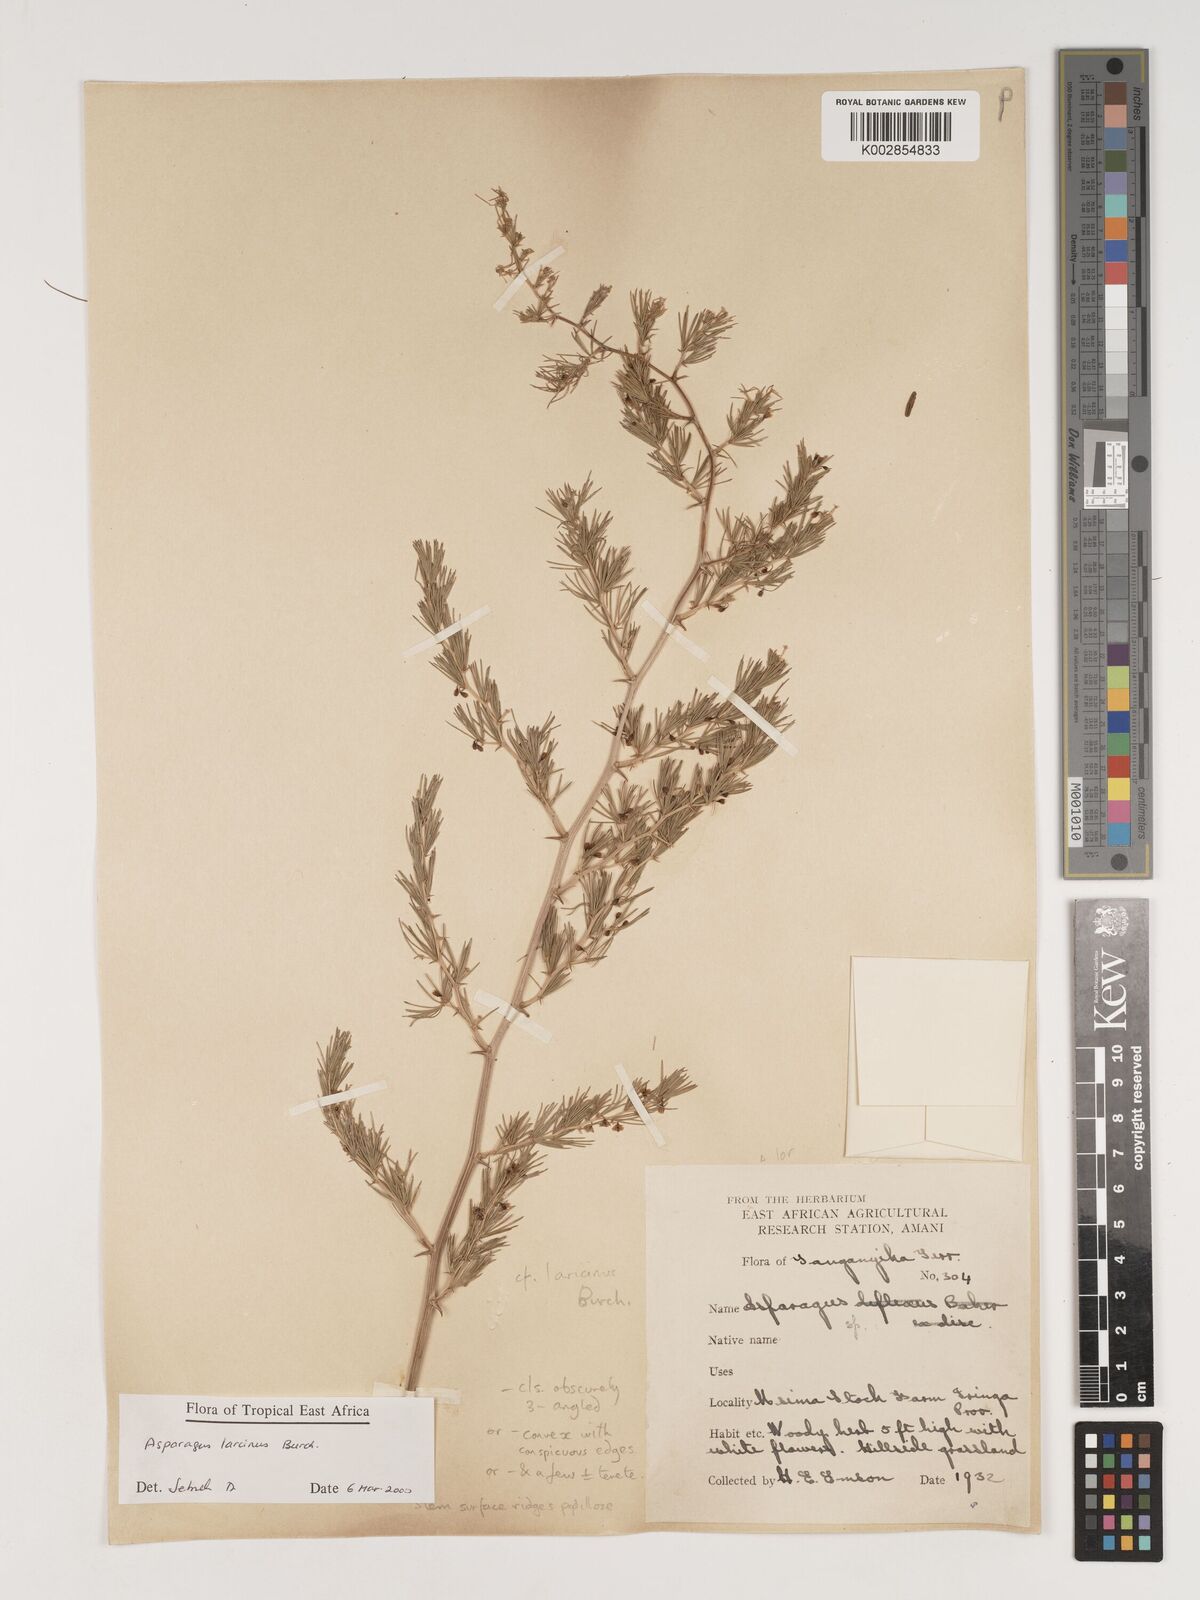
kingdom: Plantae
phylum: Tracheophyta
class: Liliopsida
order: Asparagales
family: Asparagaceae
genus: Asparagus
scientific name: Asparagus laricinus
